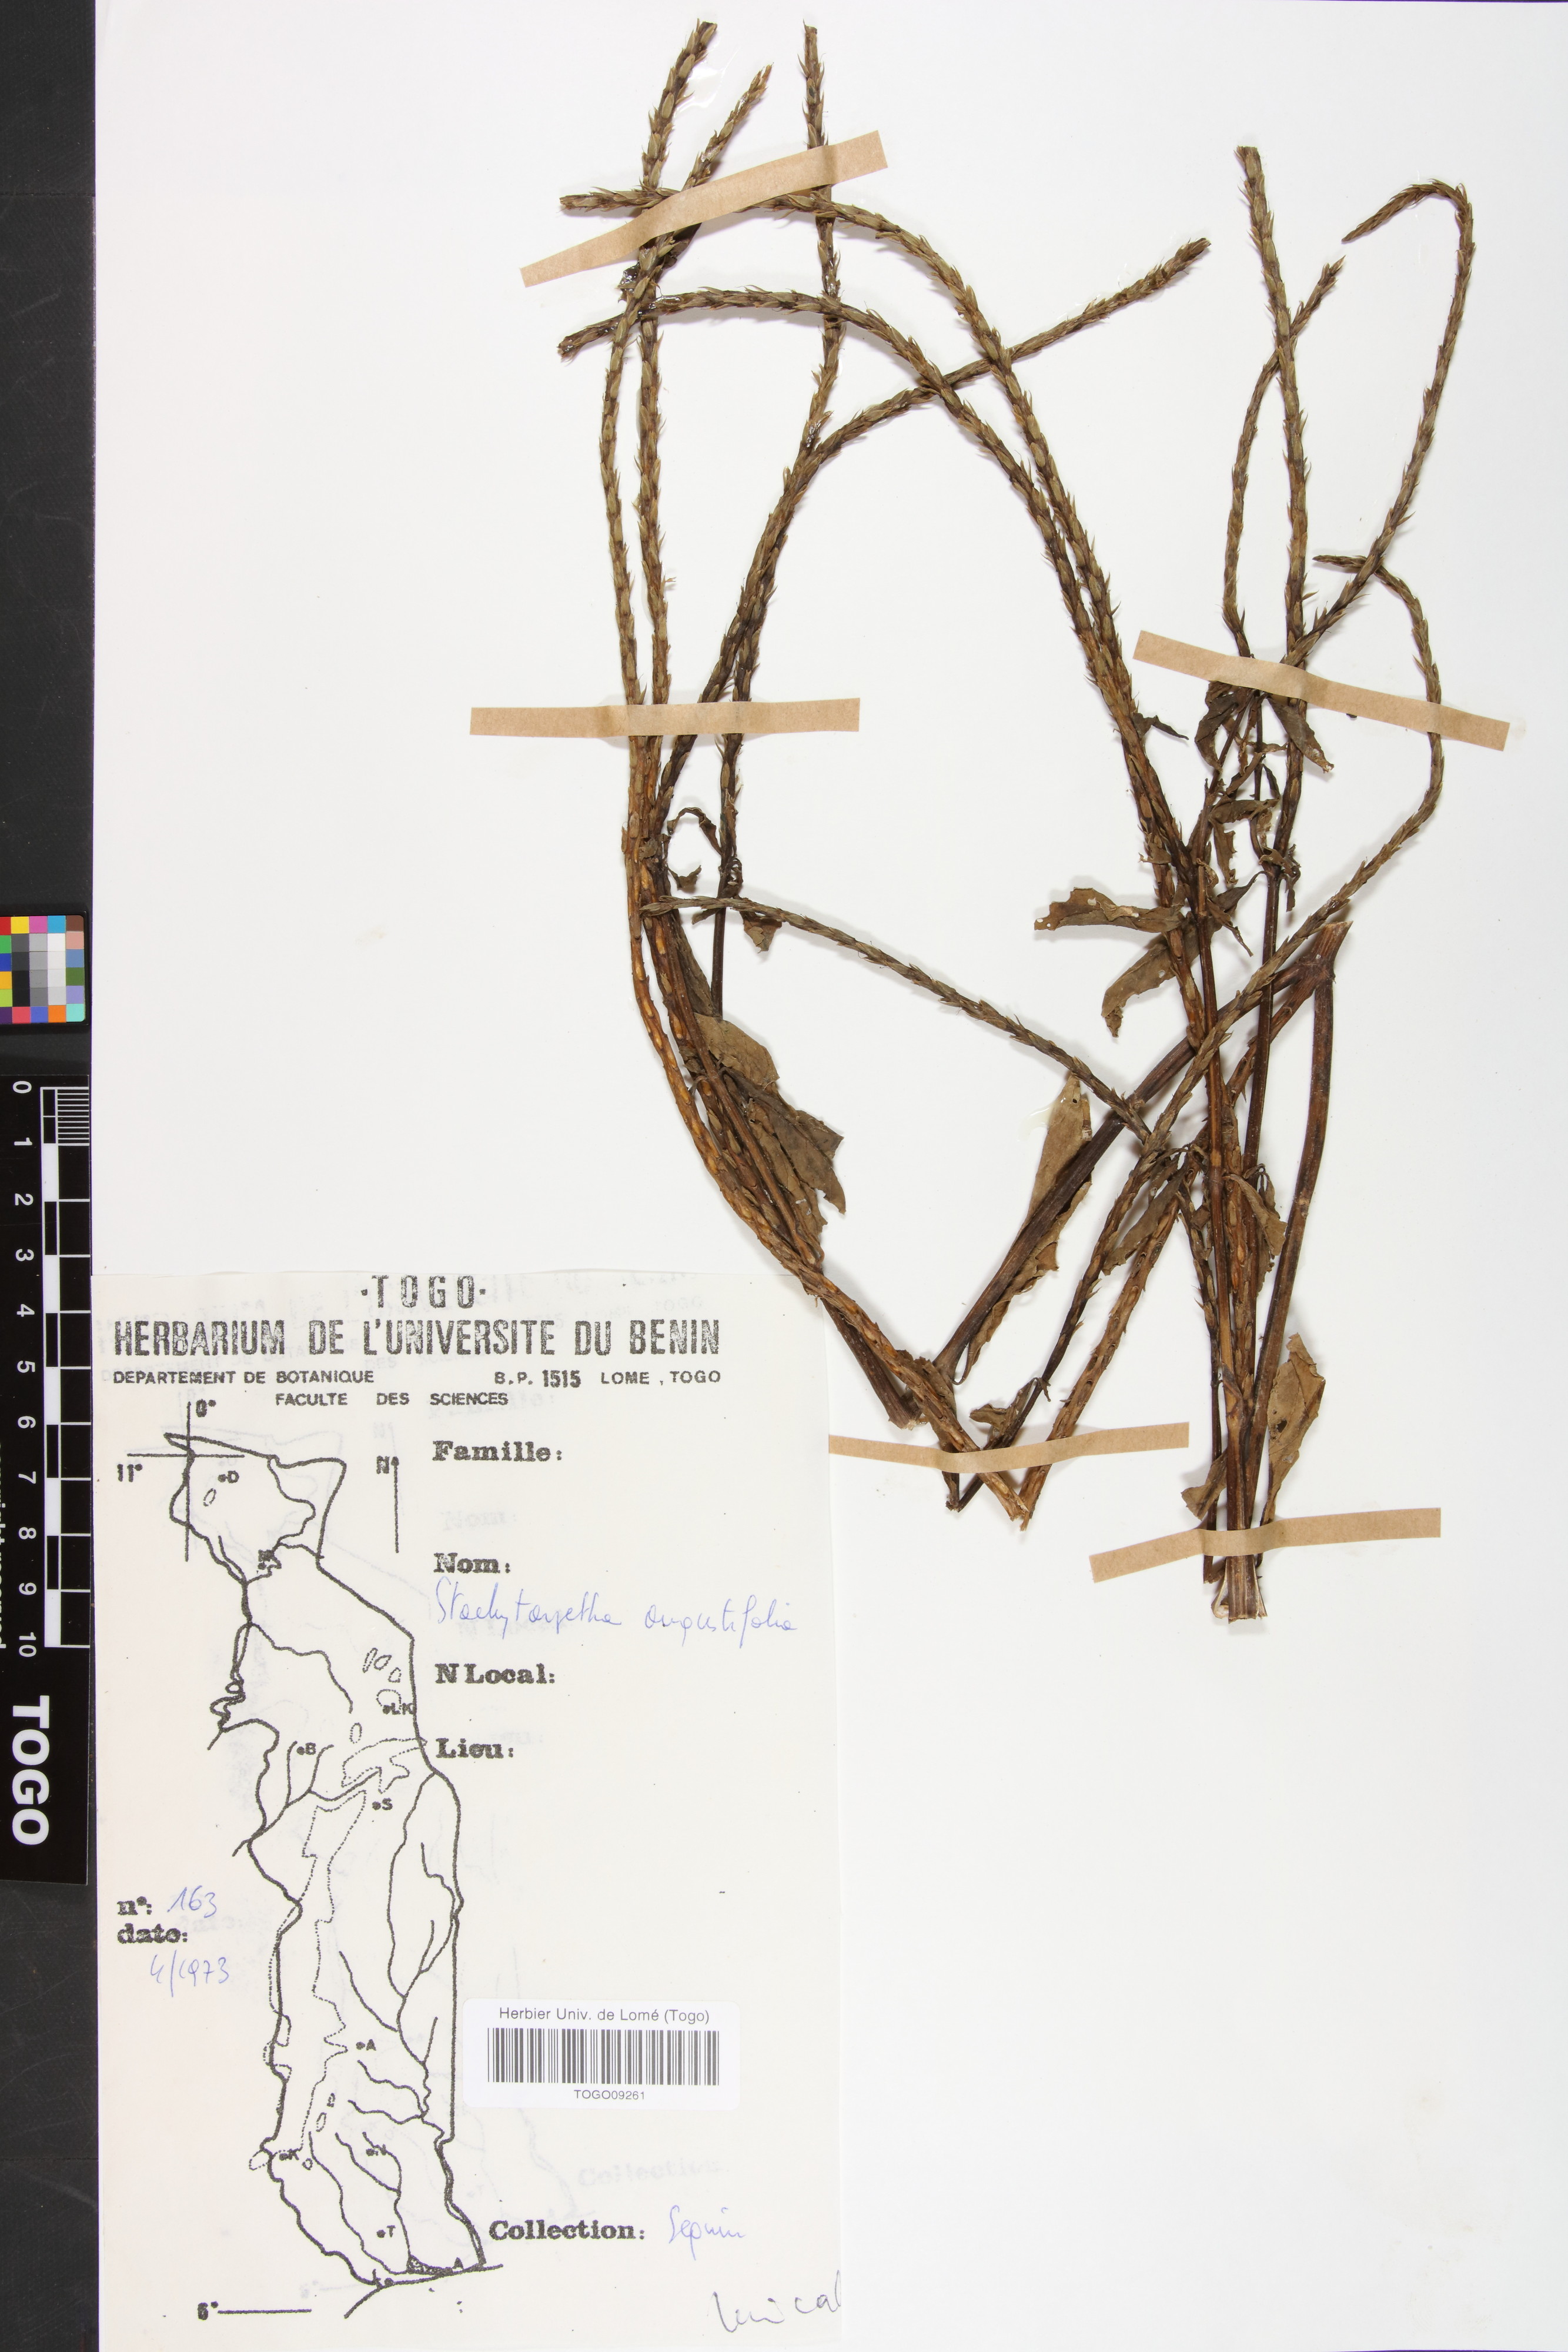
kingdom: Plantae
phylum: Tracheophyta
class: Magnoliopsida
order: Lamiales
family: Verbenaceae
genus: Stachytarpheta
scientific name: Stachytarpheta indica
